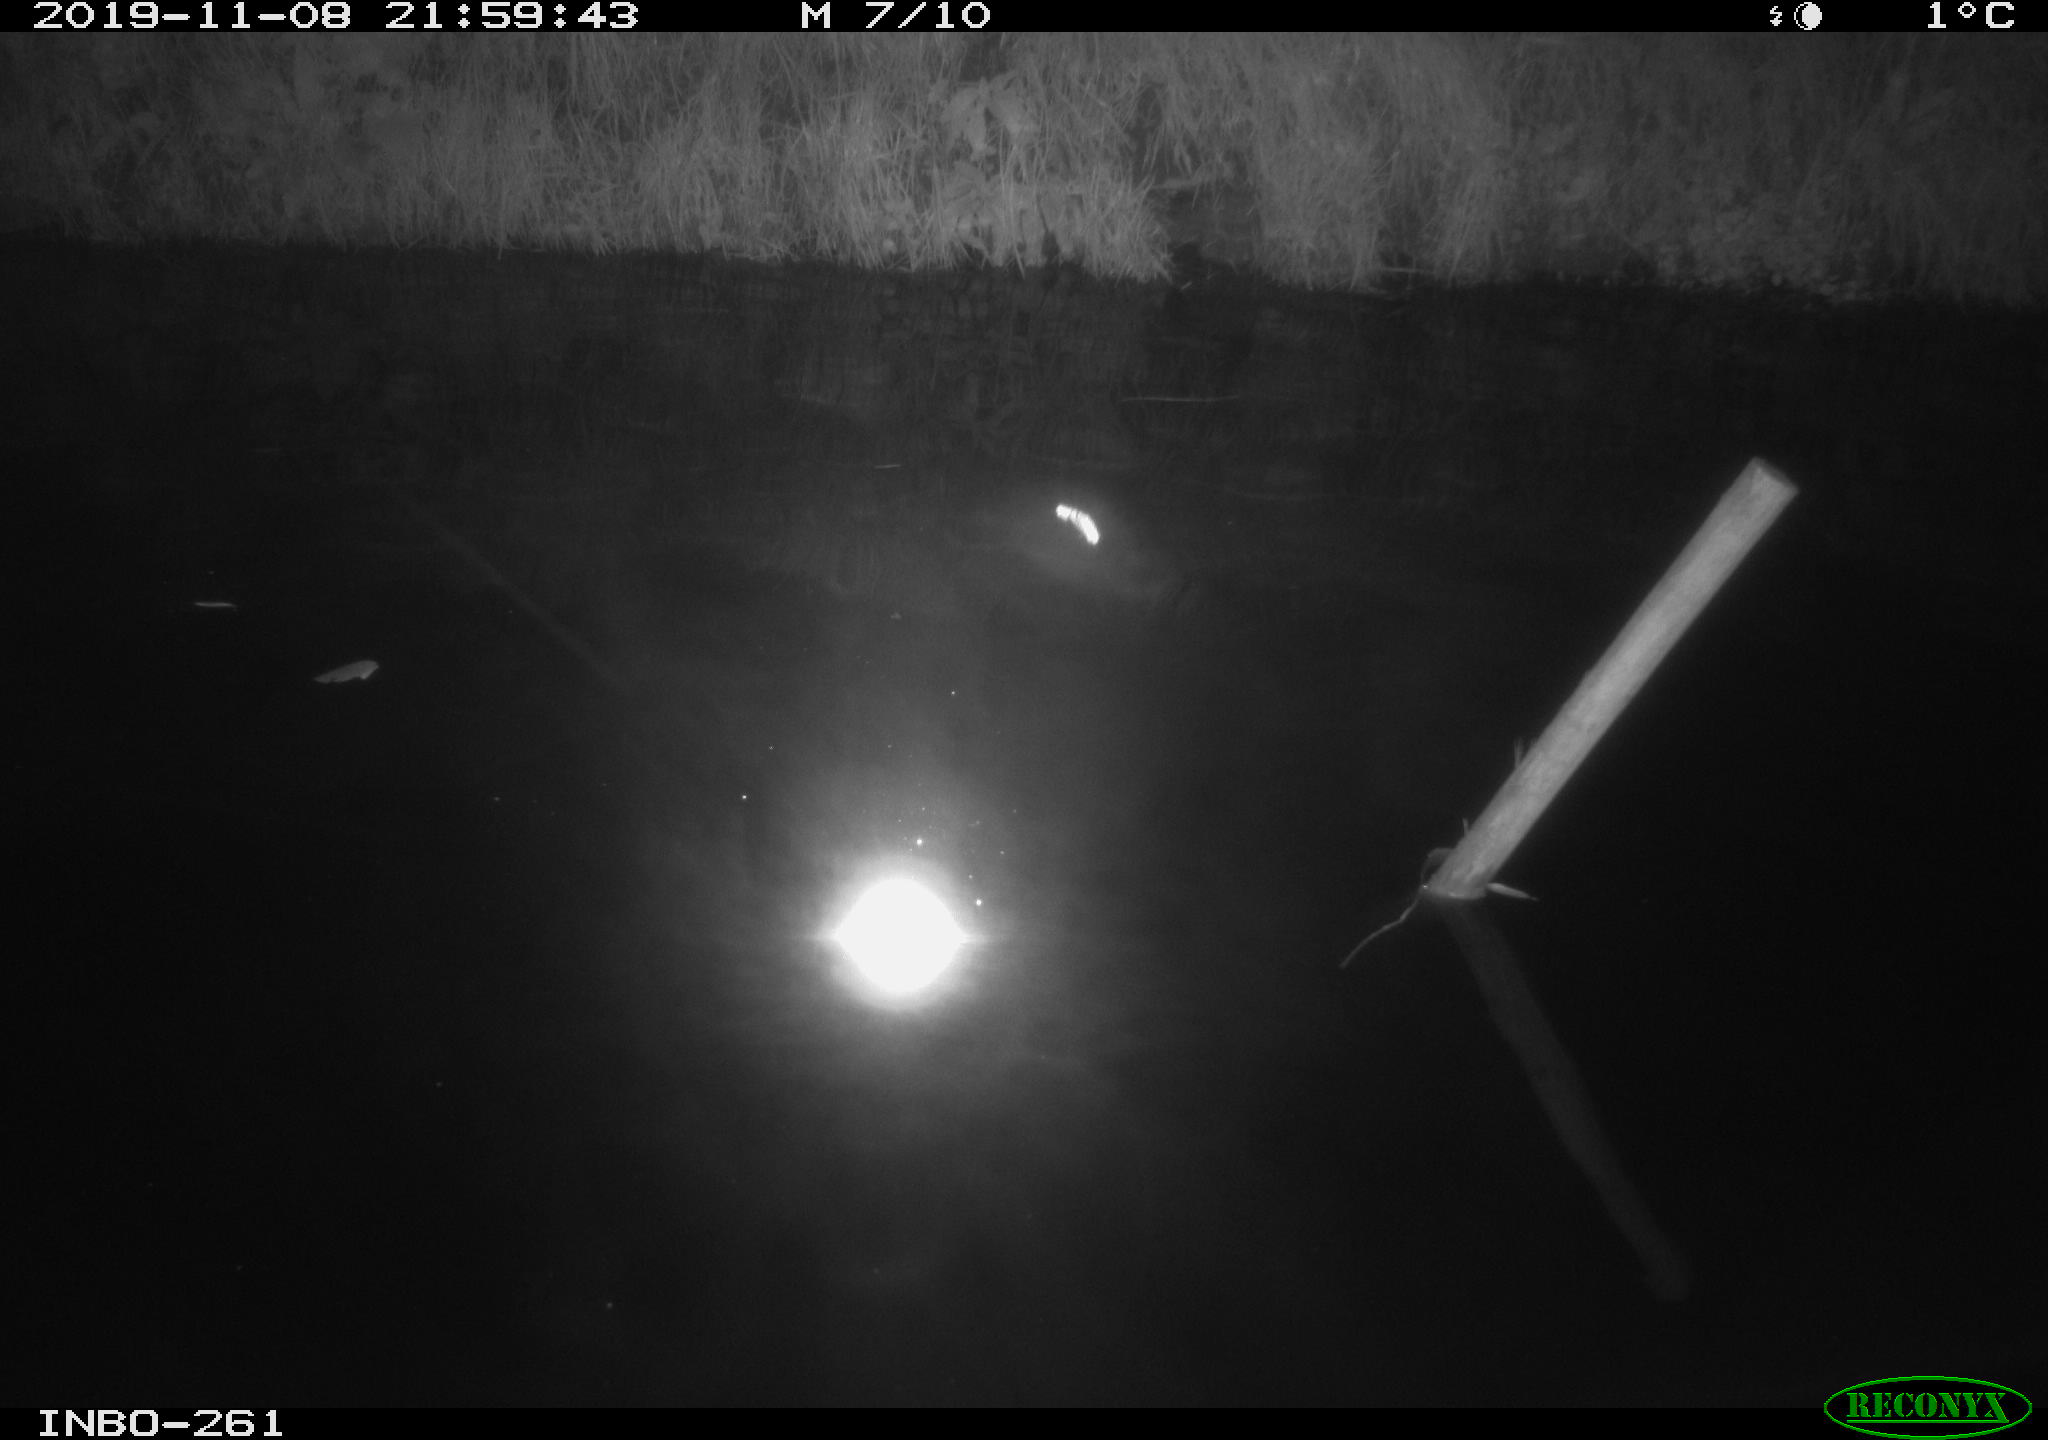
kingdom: Animalia
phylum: Chordata
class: Aves
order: Anseriformes
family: Anatidae
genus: Anas
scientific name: Anas platyrhynchos
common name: Mallard
